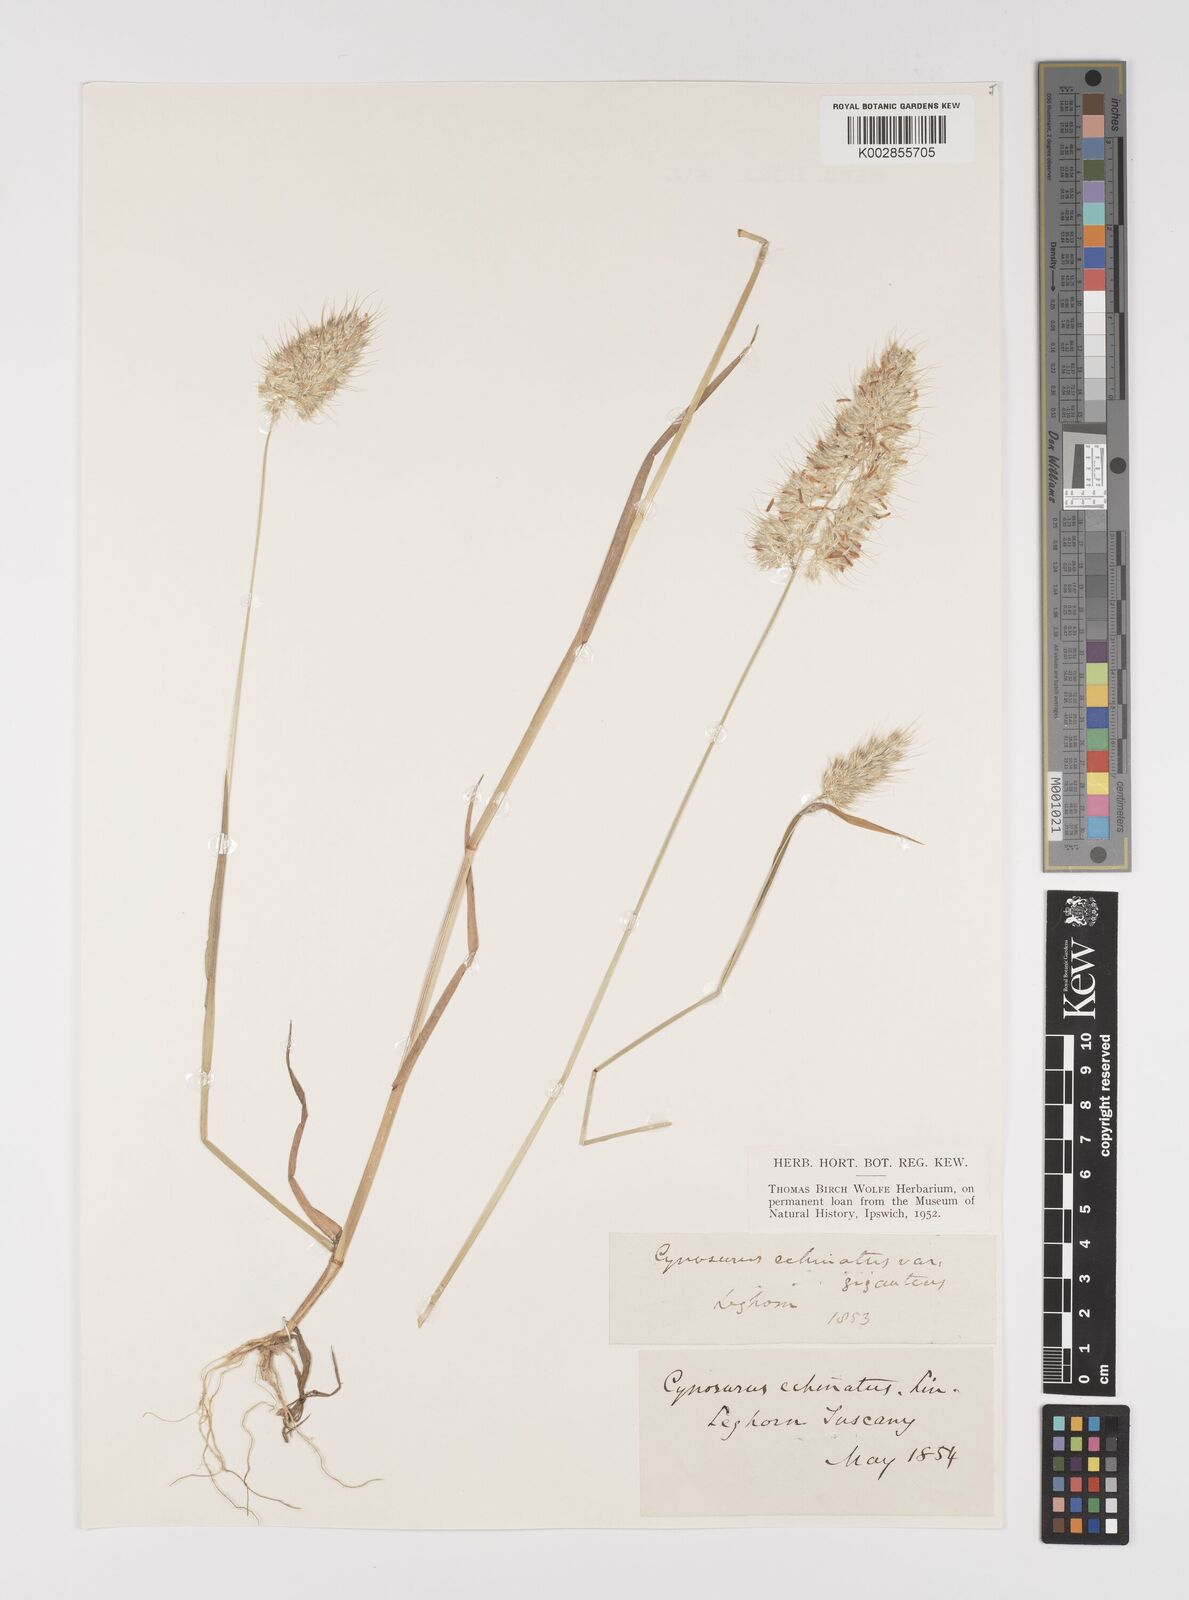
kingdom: Plantae
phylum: Tracheophyta
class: Liliopsida
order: Poales
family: Poaceae
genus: Cynosurus
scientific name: Cynosurus echinatus
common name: Rough dog's-tail
